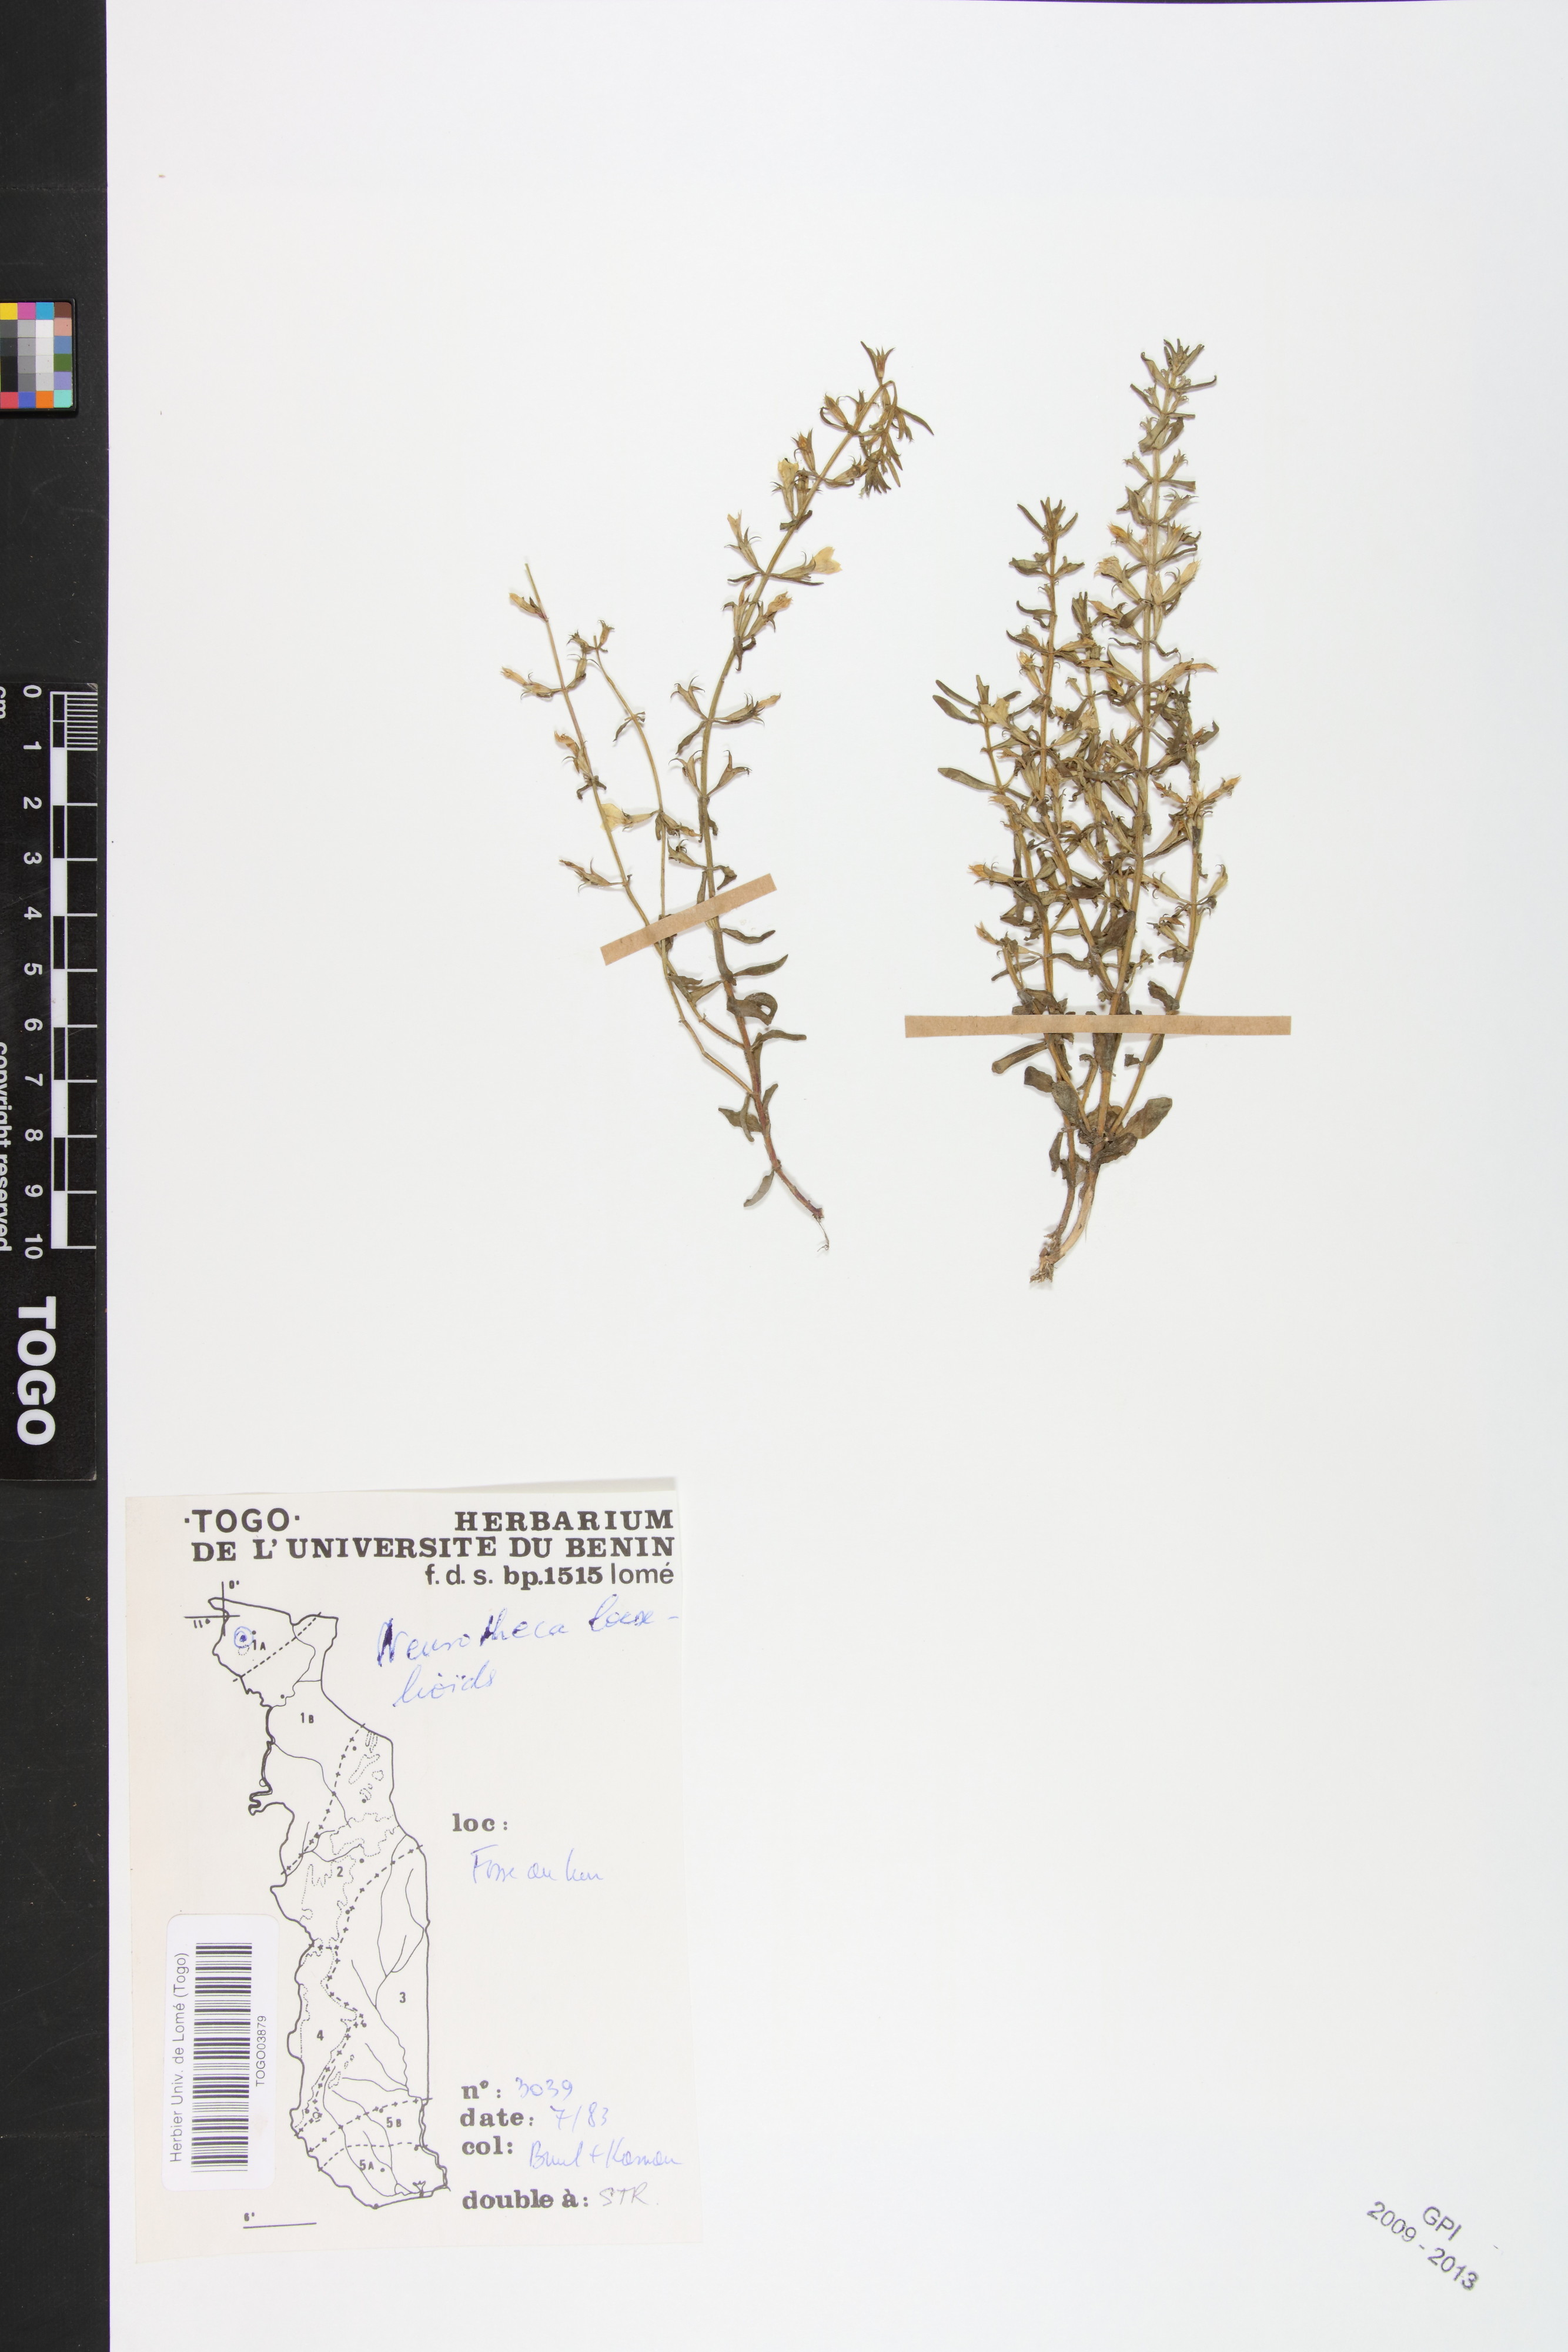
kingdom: Plantae
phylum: Tracheophyta
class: Magnoliopsida
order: Gentianales
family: Gentianaceae
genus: Neurotheca
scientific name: Neurotheca loeselioides
